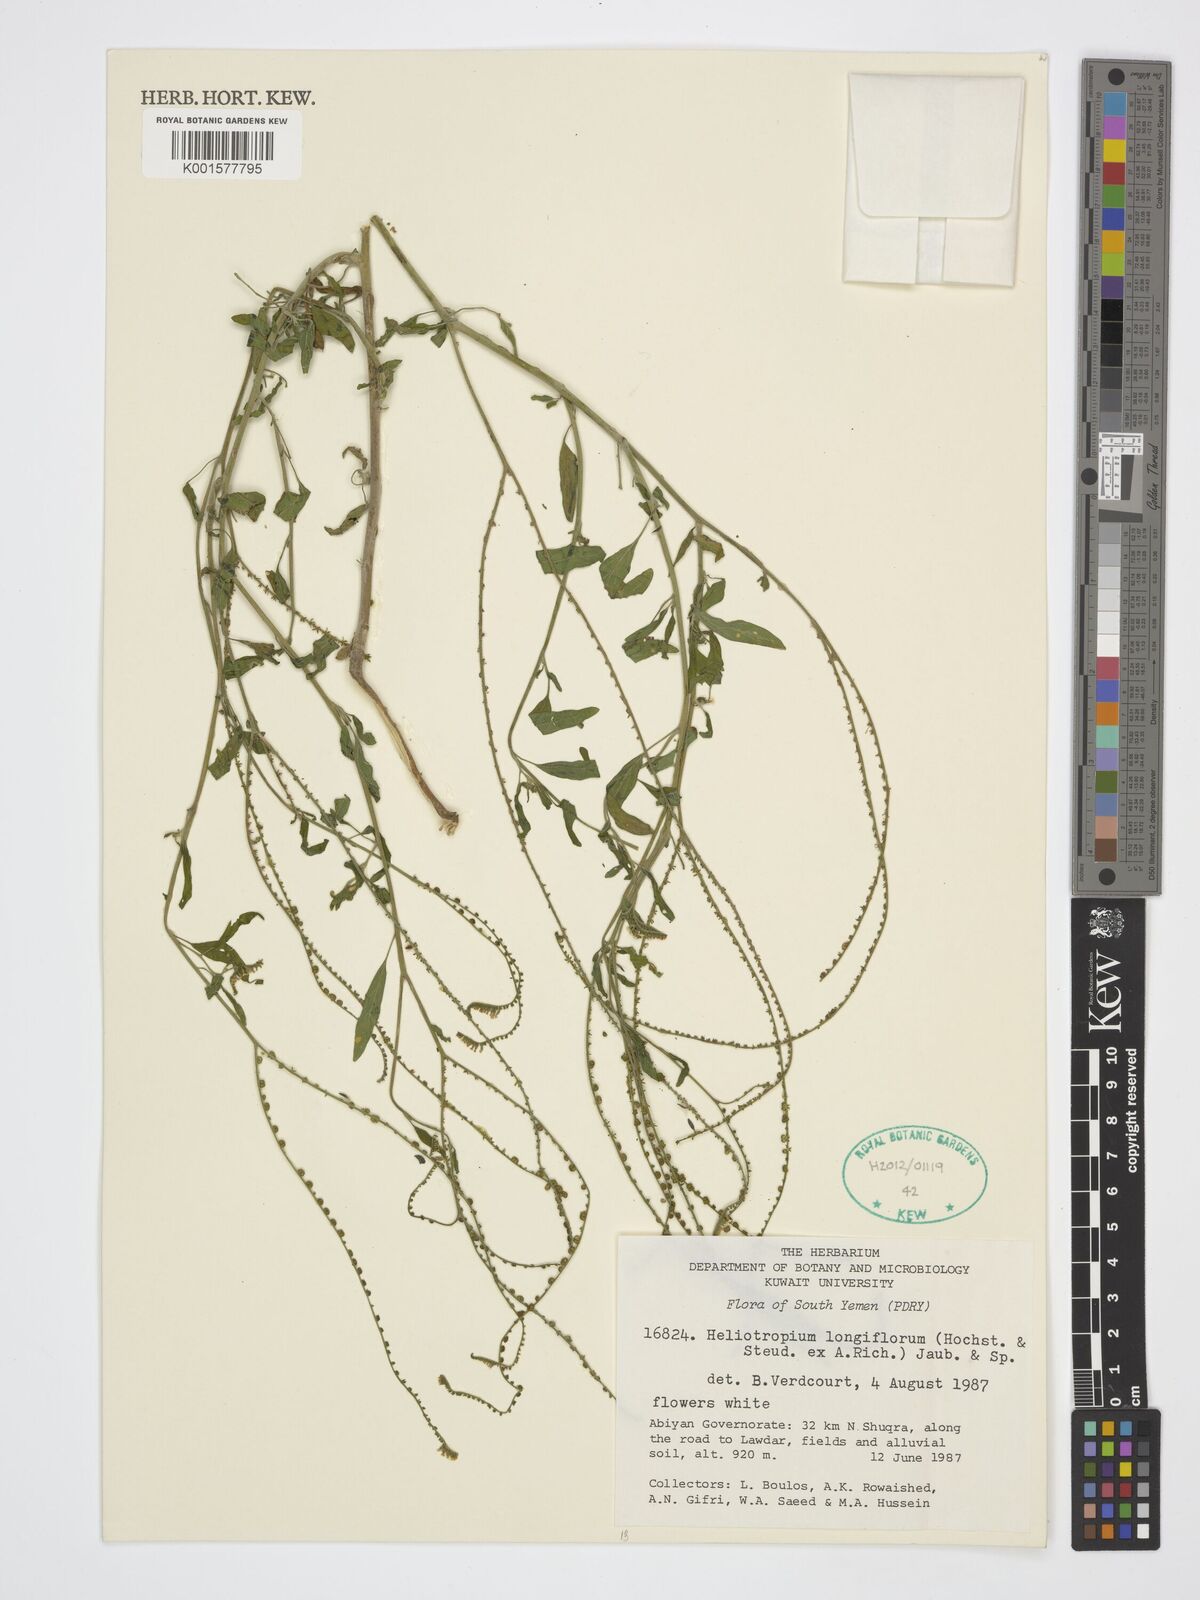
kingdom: Plantae
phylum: Tracheophyta
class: Magnoliopsida
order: Boraginales
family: Heliotropiaceae
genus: Heliotropium
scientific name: Heliotropium longiflorum
